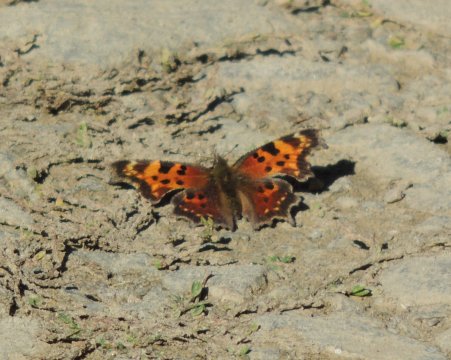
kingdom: Animalia
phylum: Arthropoda
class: Insecta
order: Lepidoptera
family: Nymphalidae
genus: Polygonia
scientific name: Polygonia faunus
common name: Green Comma
